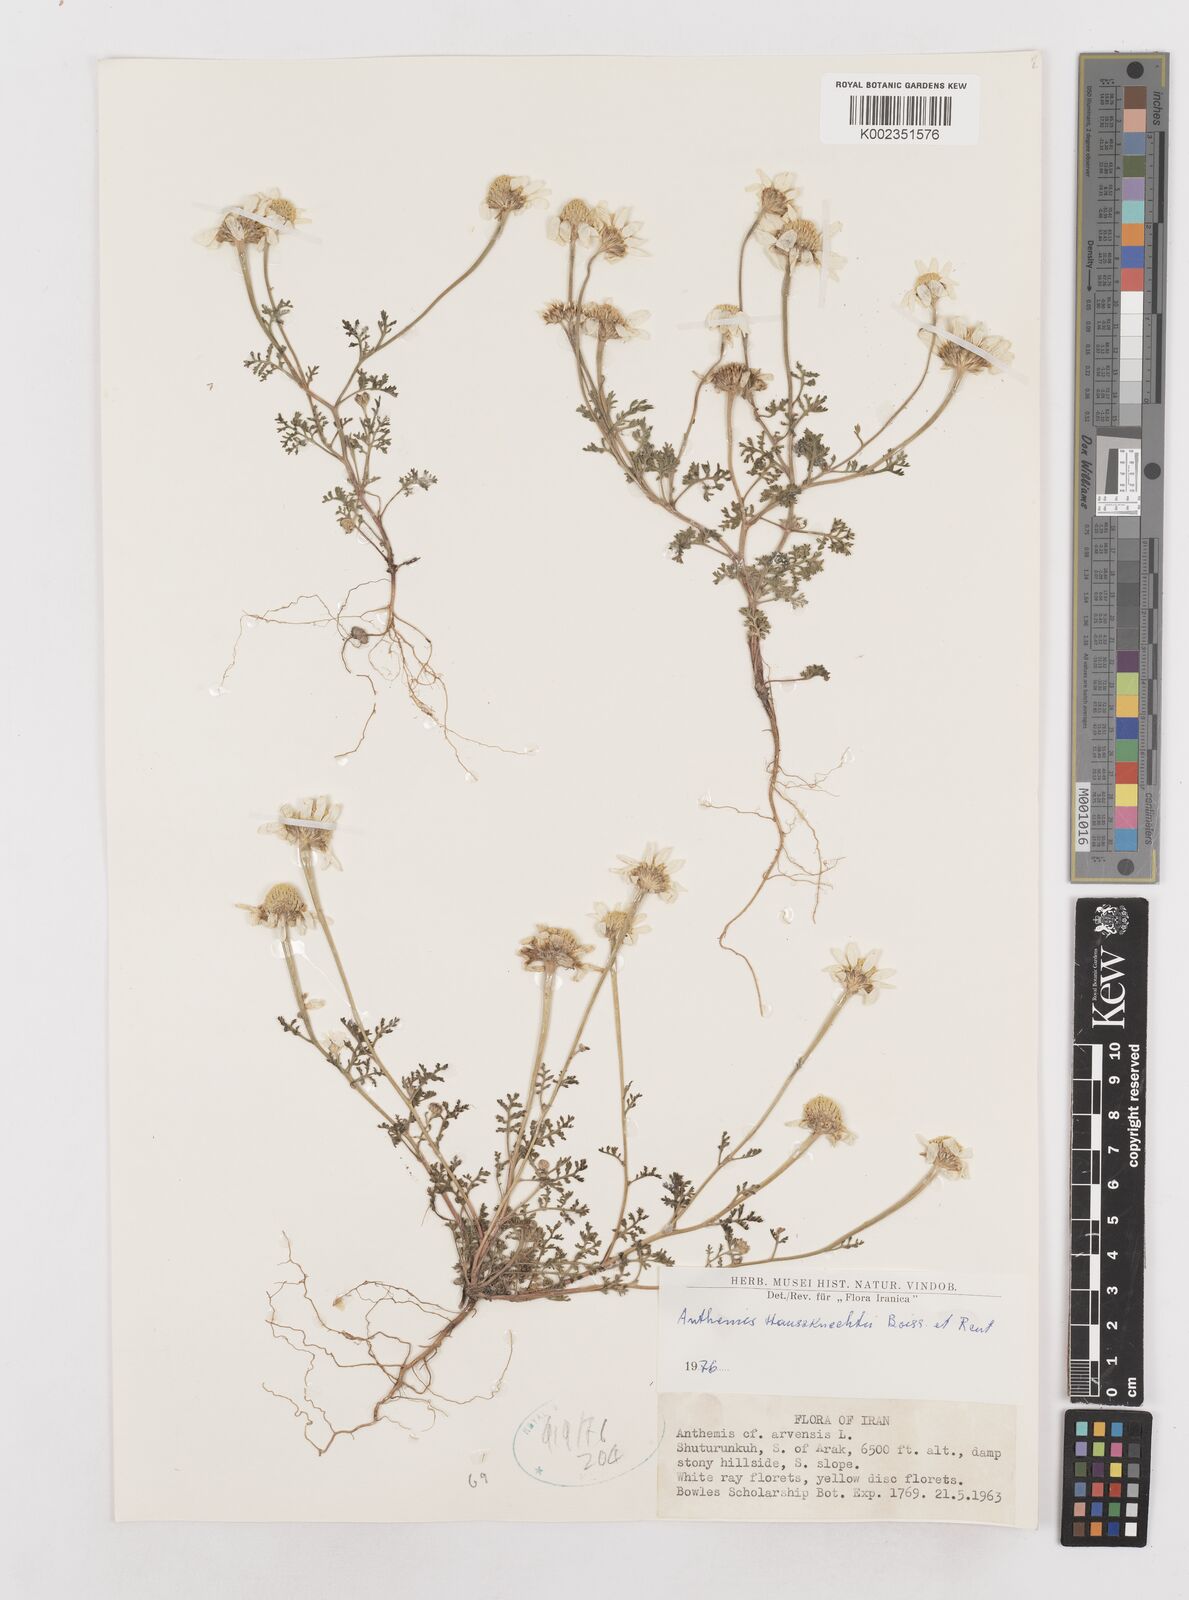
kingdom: Plantae
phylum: Tracheophyta
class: Magnoliopsida
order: Asterales
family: Asteraceae
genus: Anthemis
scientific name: Anthemis haussknechtii
